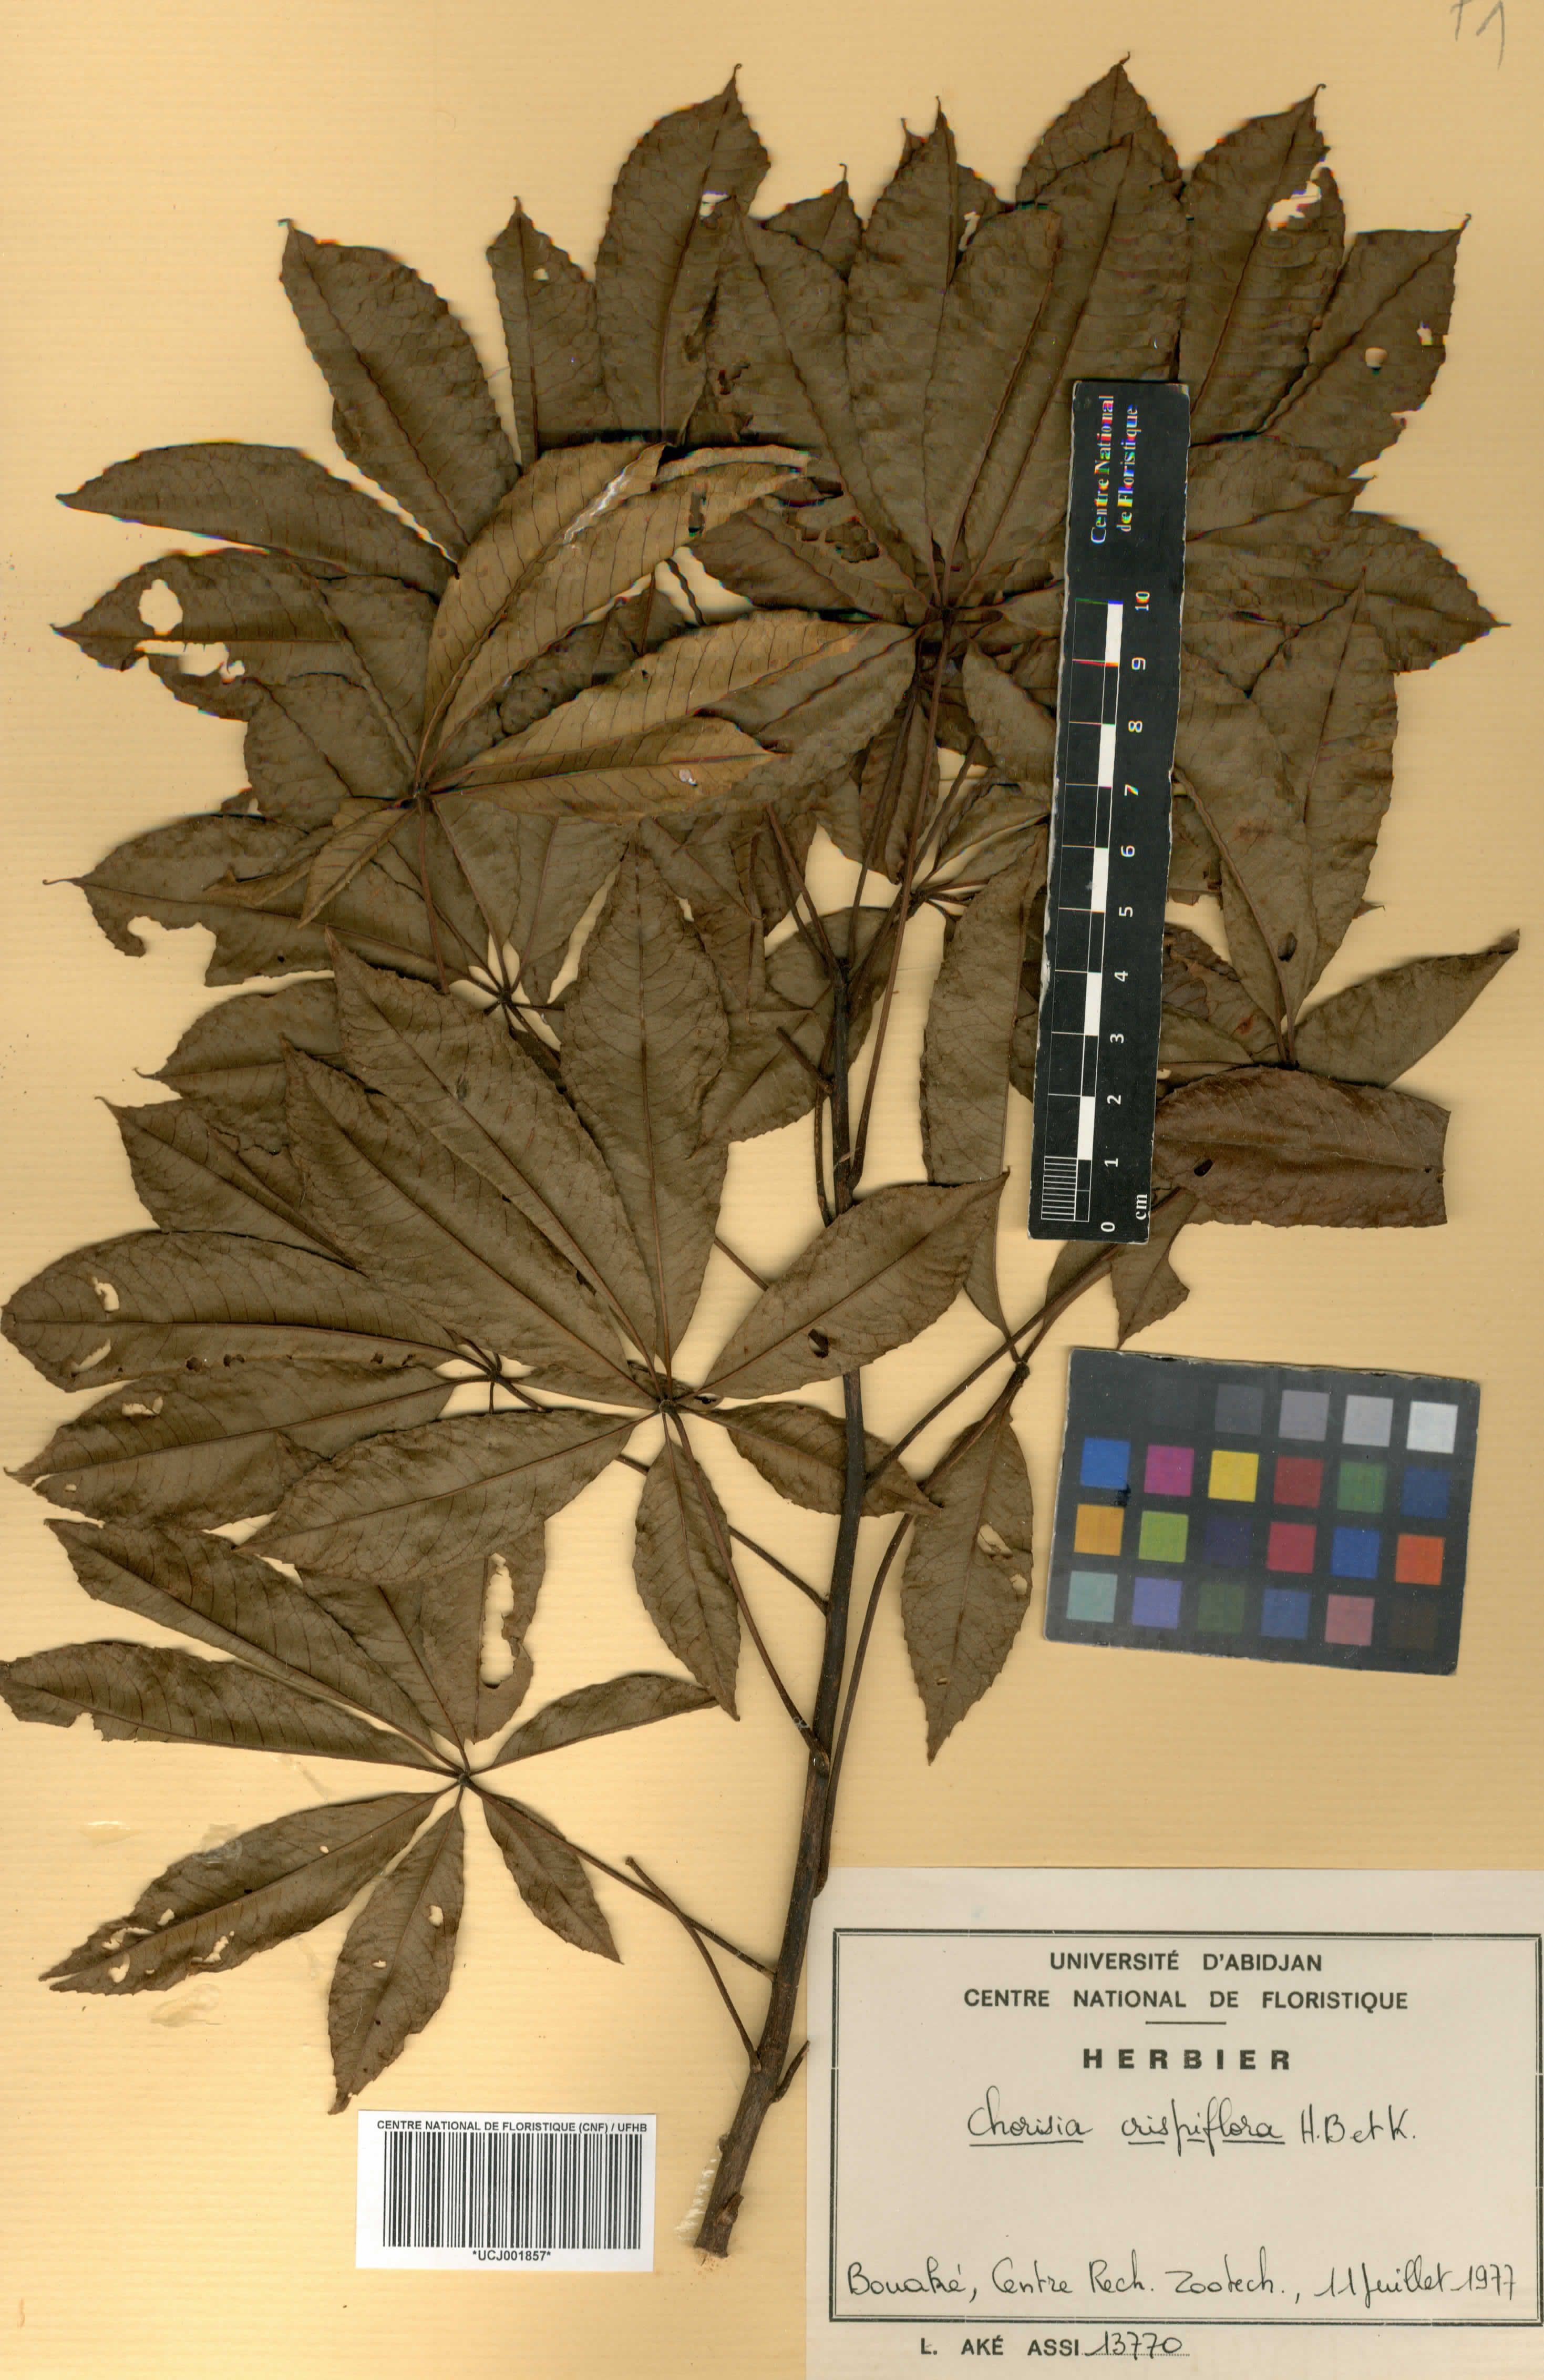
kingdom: Plantae
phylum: Tracheophyta
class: Magnoliopsida
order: Malvales
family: Malvaceae
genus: Ceiba
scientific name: Ceiba crispiflora
